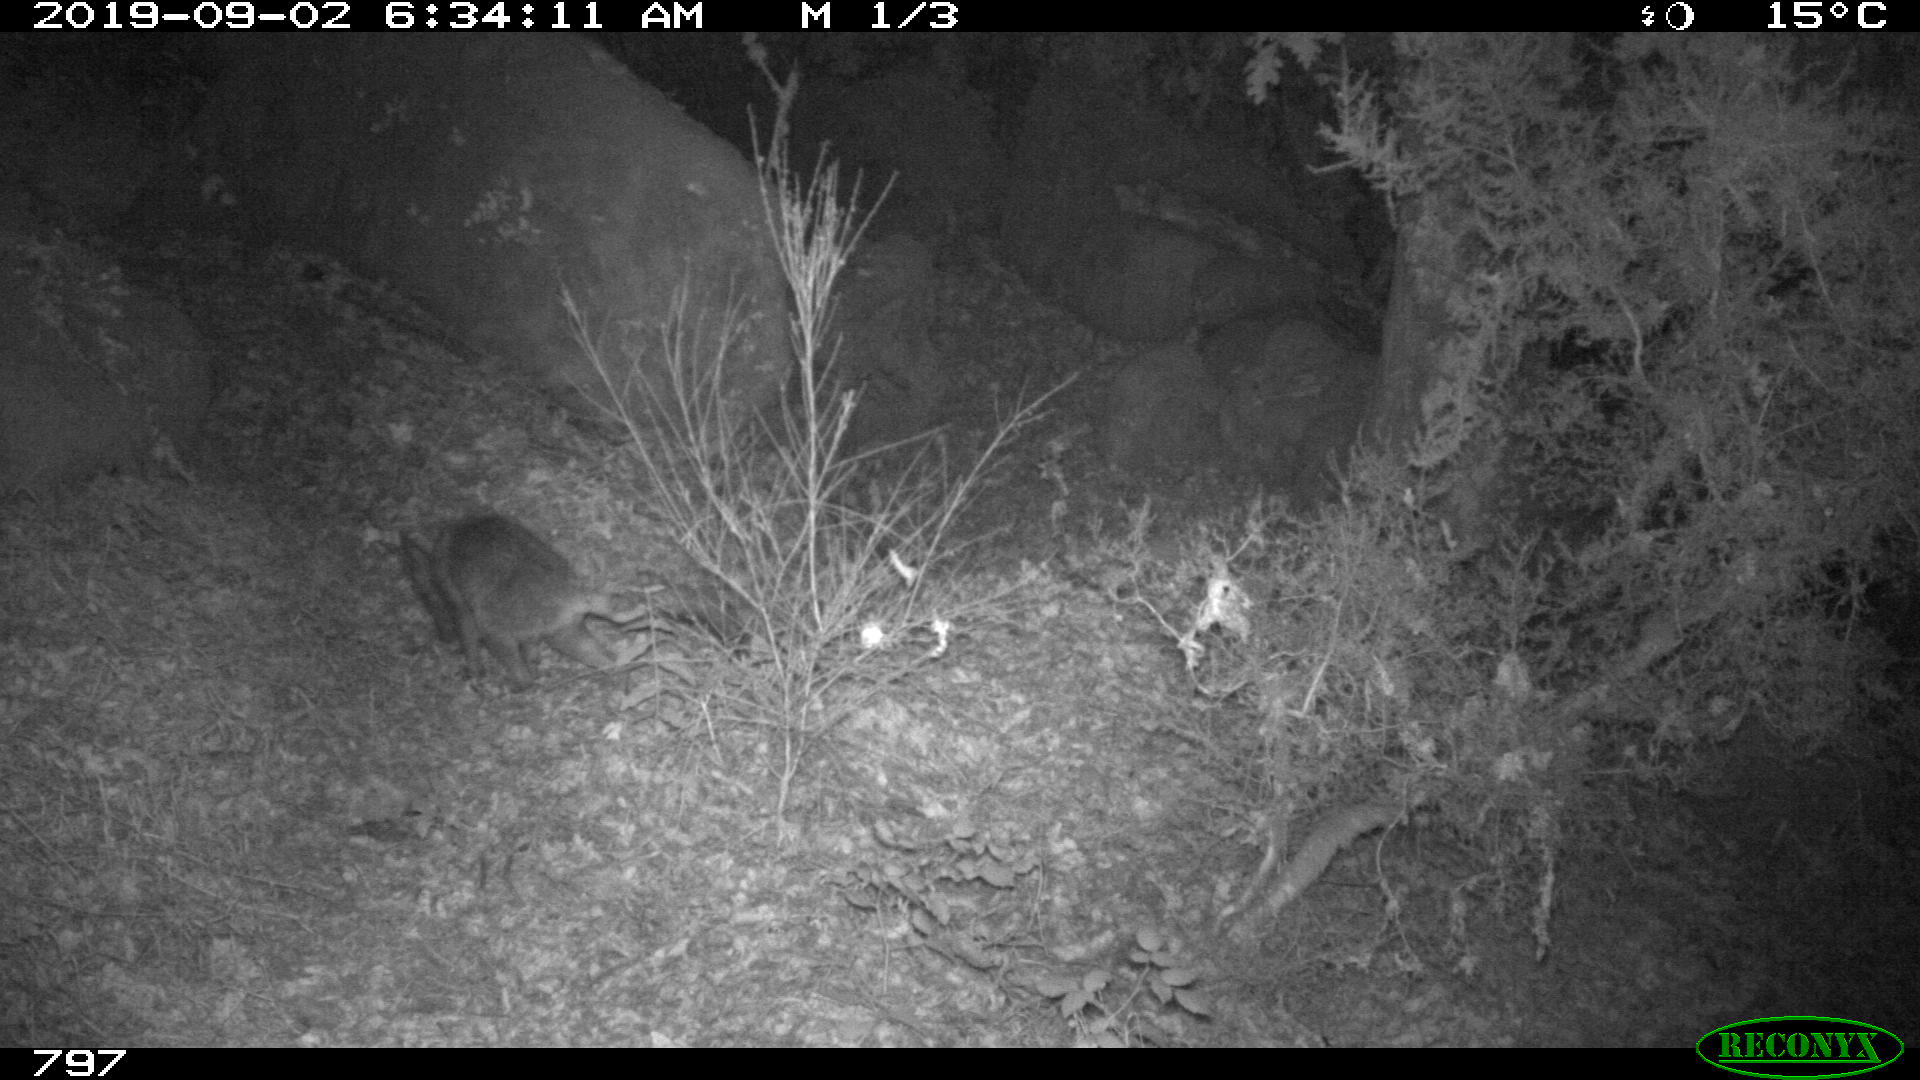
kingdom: Animalia
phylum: Chordata
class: Mammalia
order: Carnivora
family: Canidae
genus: Vulpes
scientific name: Vulpes vulpes
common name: Red fox
